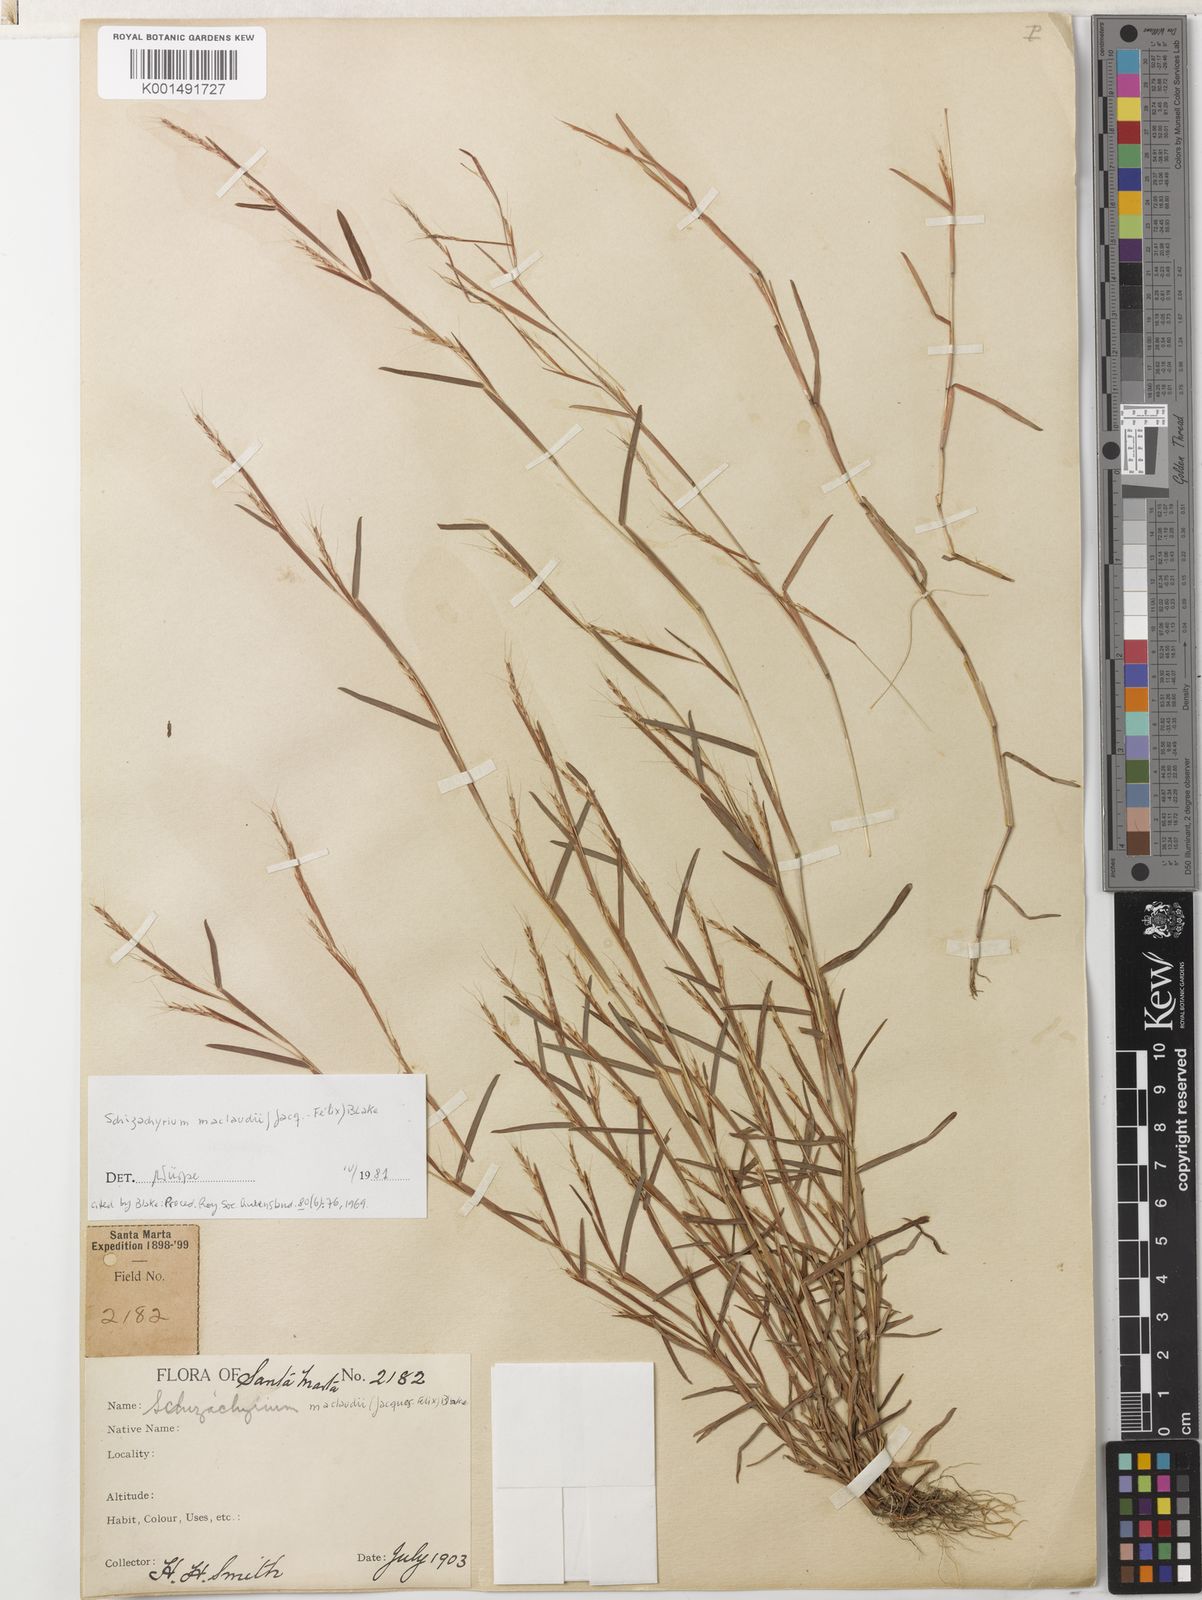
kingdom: Plantae
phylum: Tracheophyta
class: Liliopsida
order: Poales
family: Poaceae
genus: Schizachyrium
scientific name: Schizachyrium maclaudii
